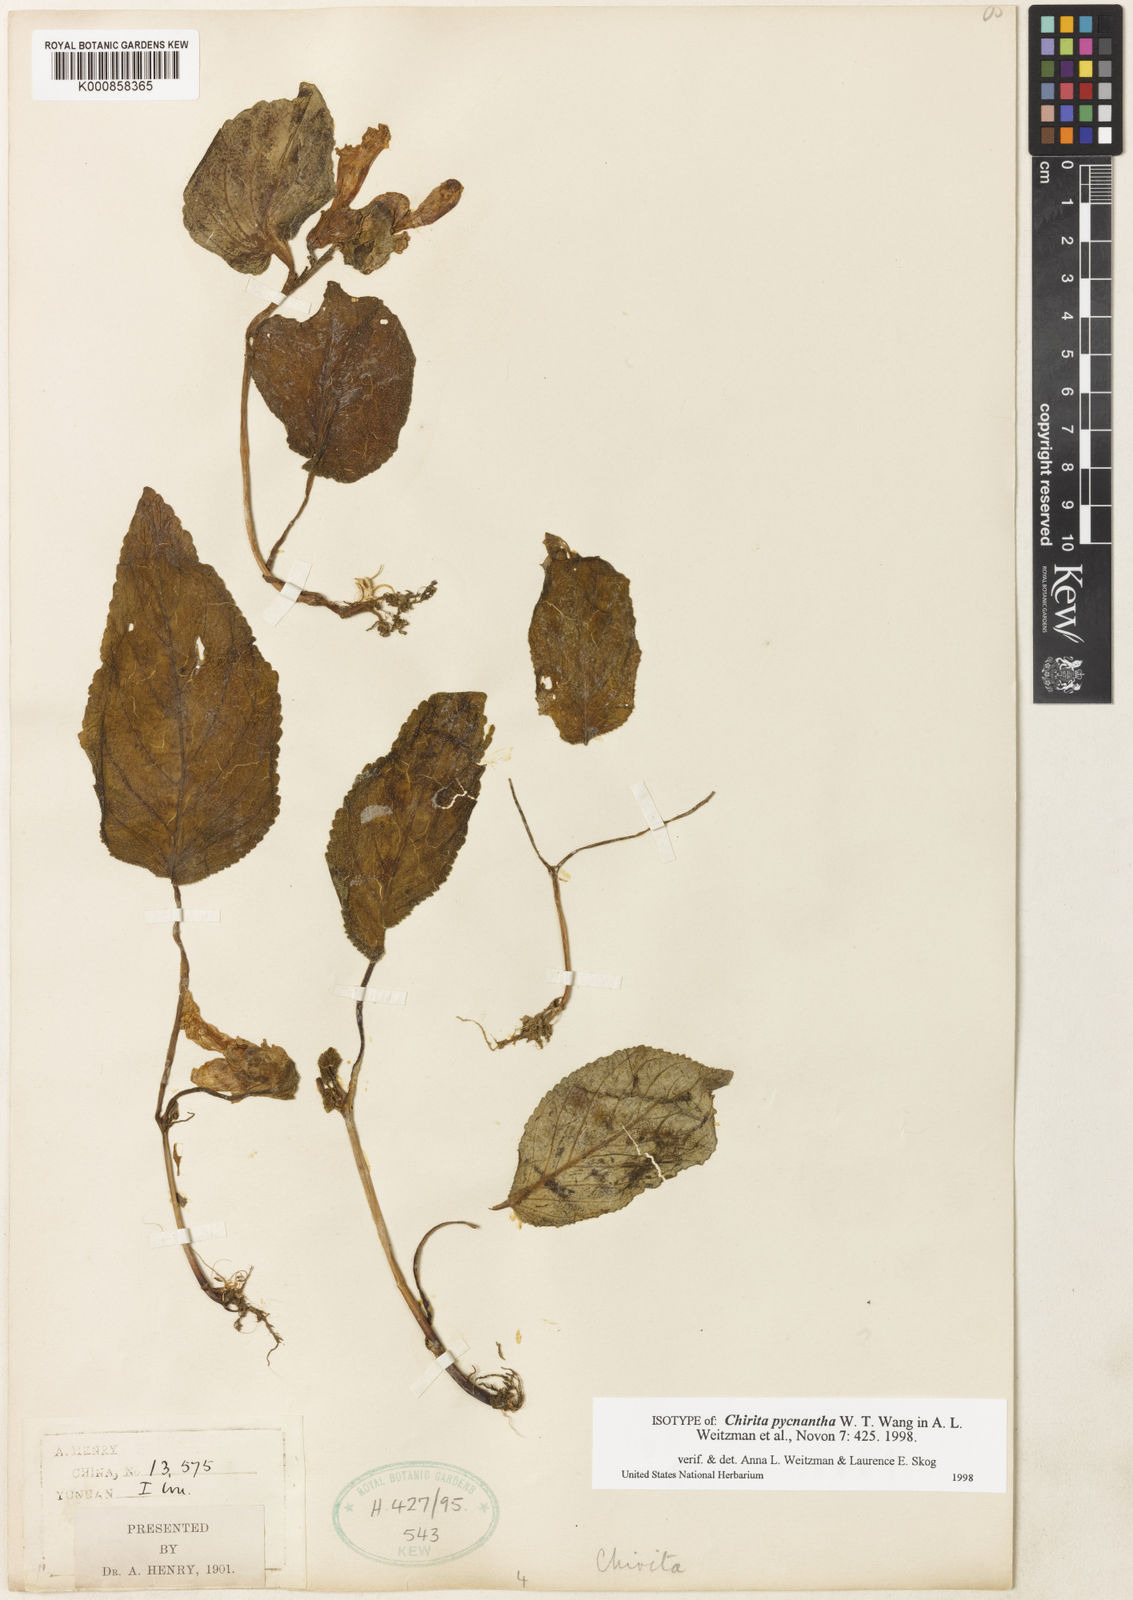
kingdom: Plantae
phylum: Tracheophyta
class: Magnoliopsida
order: Lamiales
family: Gesneriaceae
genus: Henckelia
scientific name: Henckelia pycnantha
